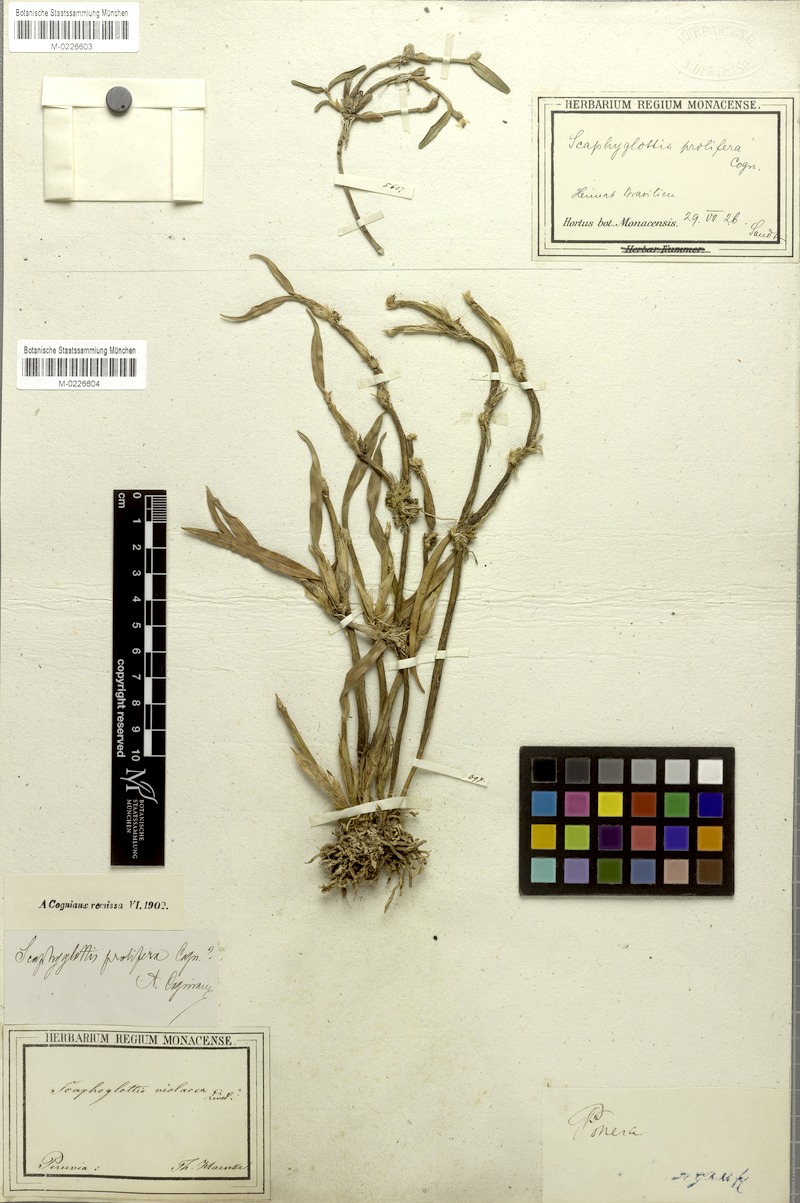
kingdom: Plantae
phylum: Tracheophyta
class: Liliopsida
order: Asparagales
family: Orchidaceae
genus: Scaphyglottis
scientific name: Scaphyglottis prolifera
